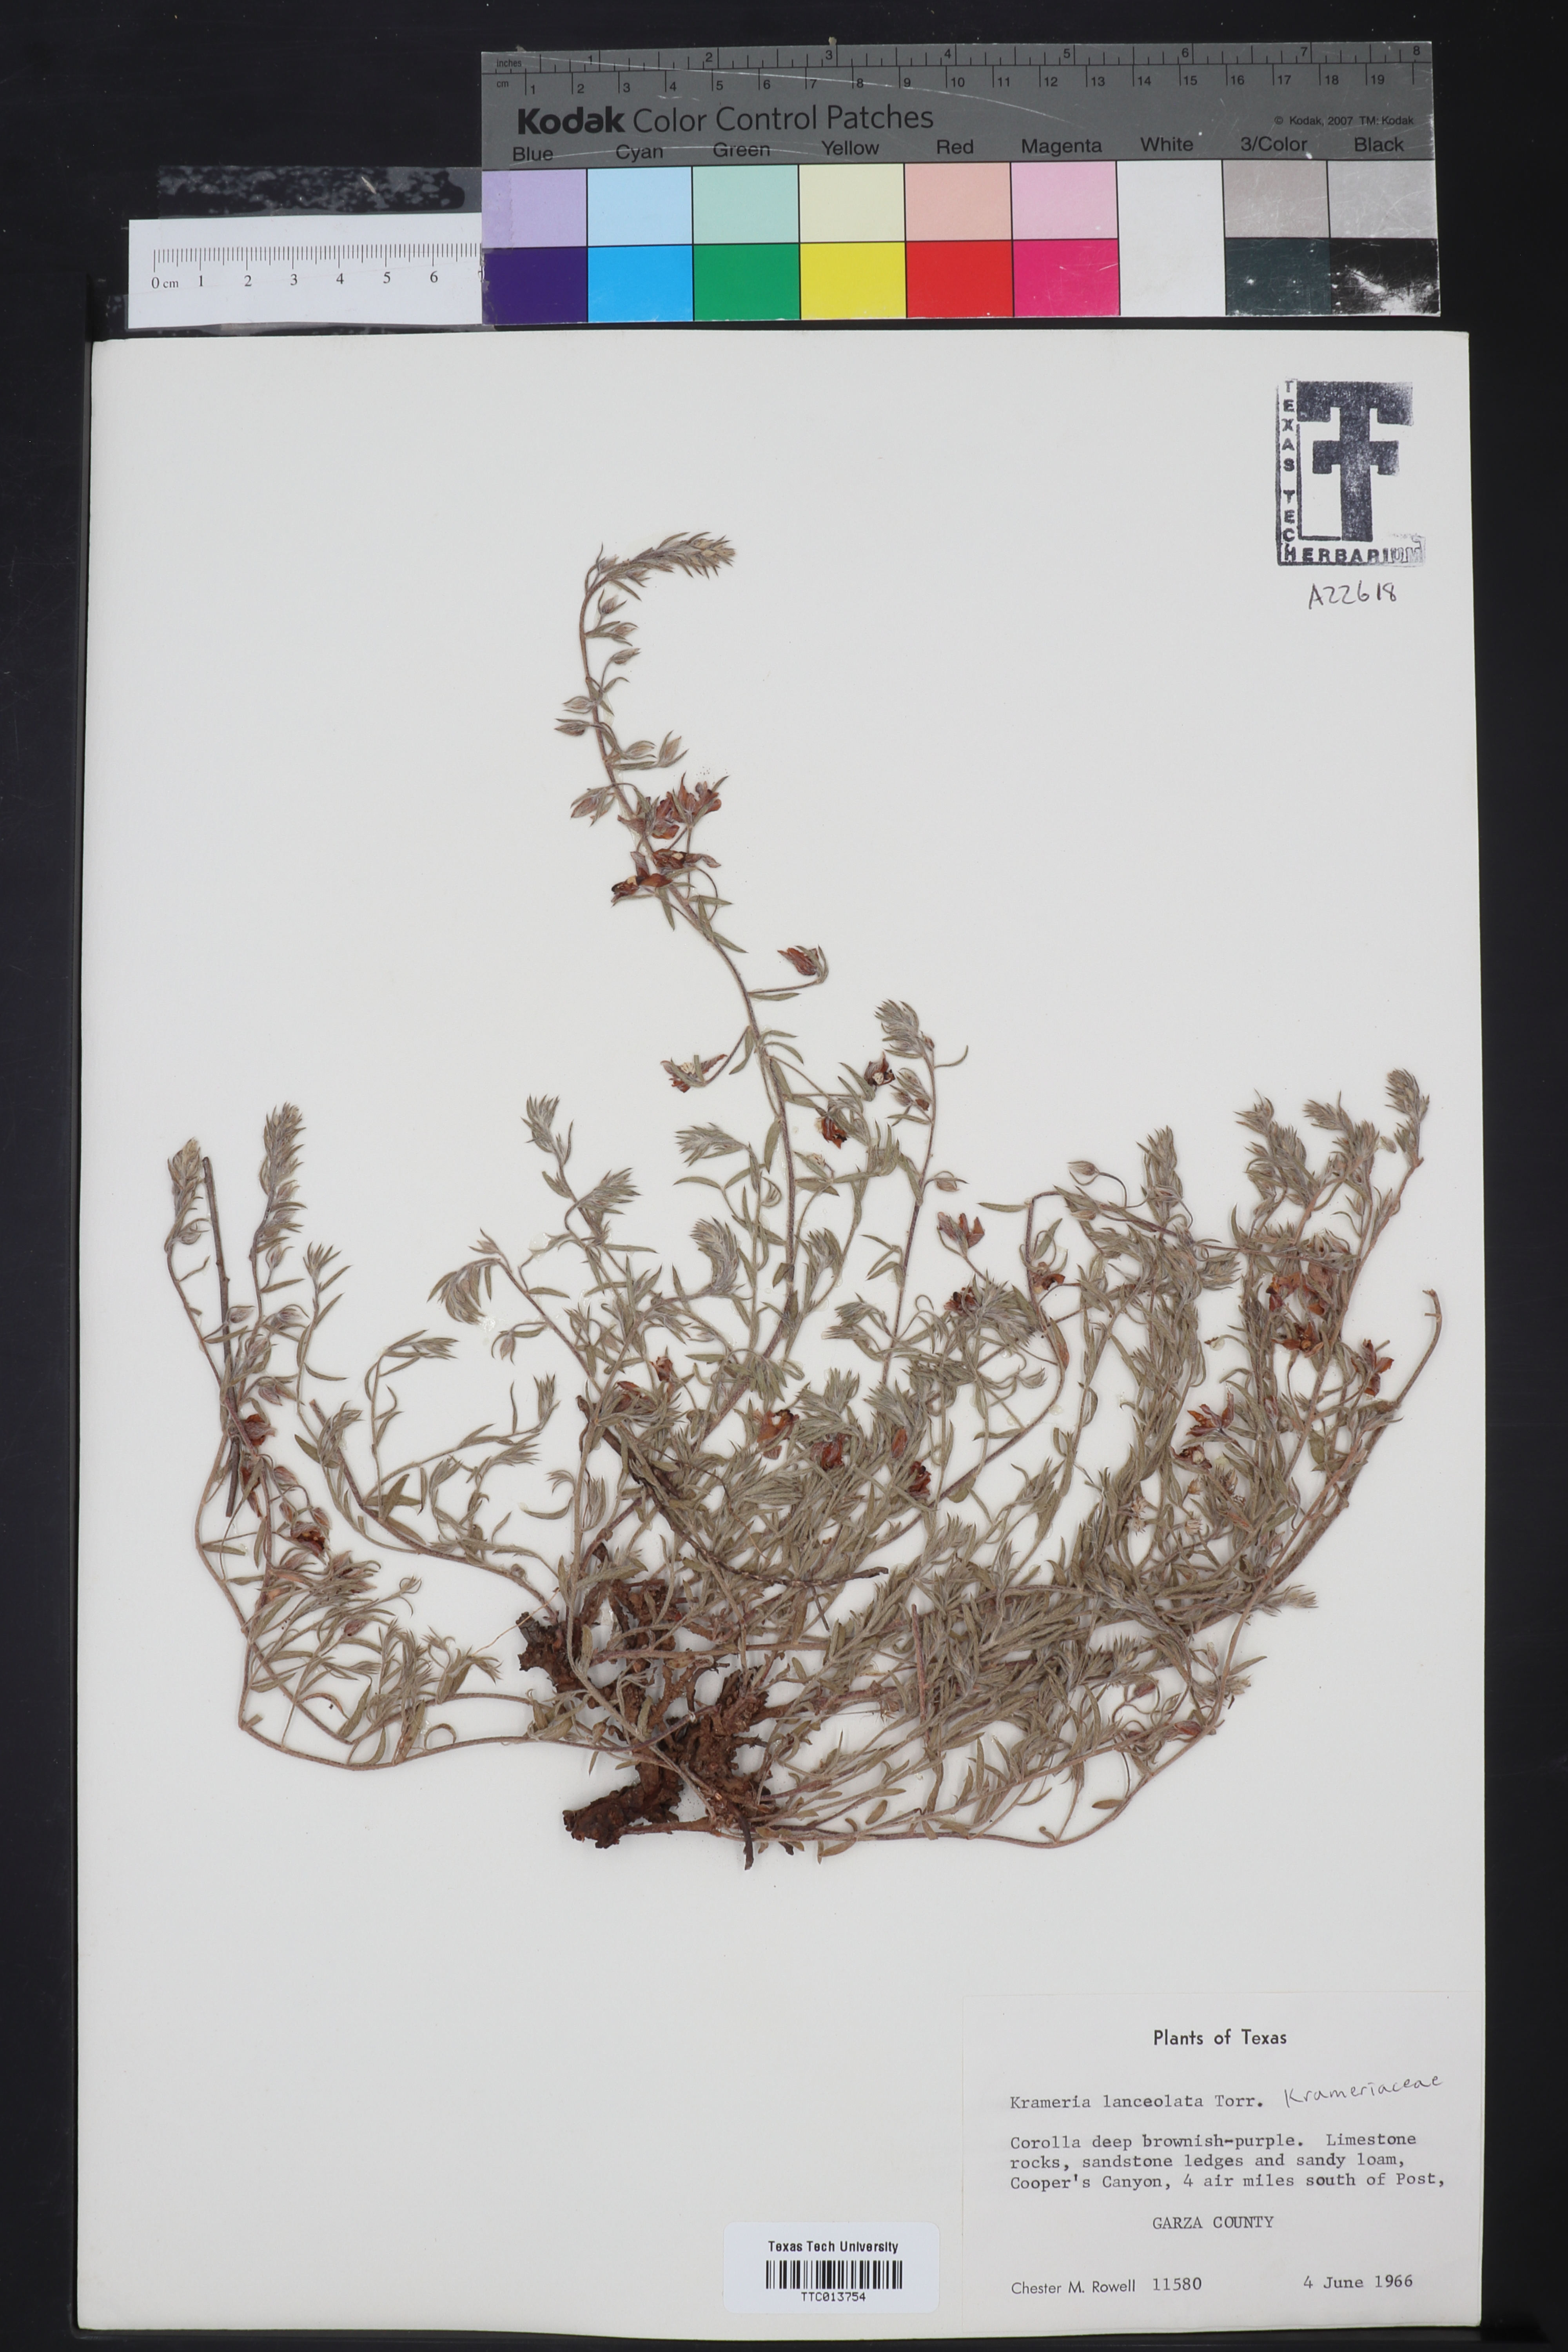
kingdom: Plantae
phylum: Tracheophyta
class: Magnoliopsida
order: Zygophyllales
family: Krameriaceae
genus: Krameria
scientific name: Krameria lanceolata
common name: Ratany
